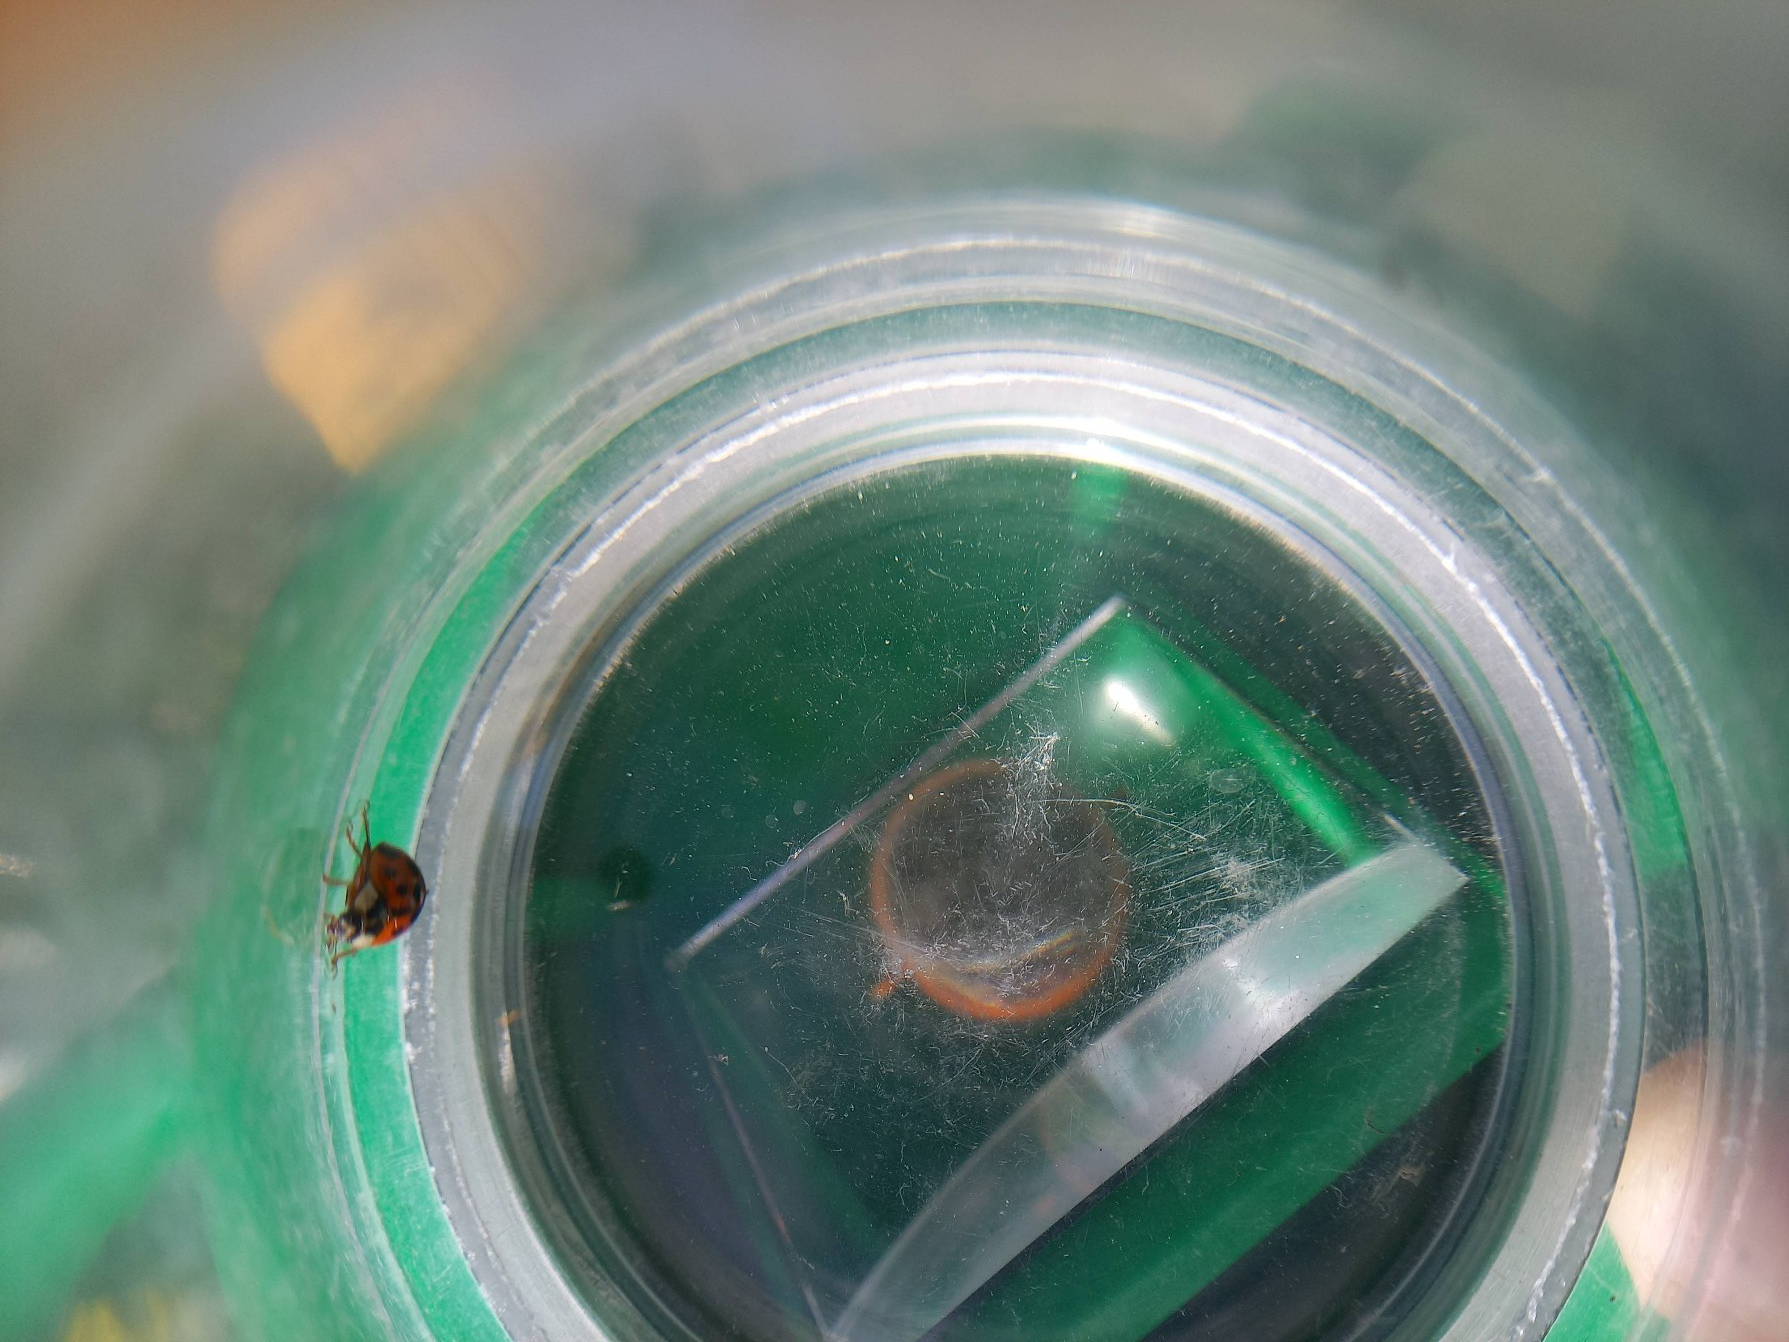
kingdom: Animalia
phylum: Arthropoda
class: Insecta
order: Coleoptera
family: Coccinellidae
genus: Harmonia
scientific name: Harmonia axyridis
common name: Harlekinmariehøne
